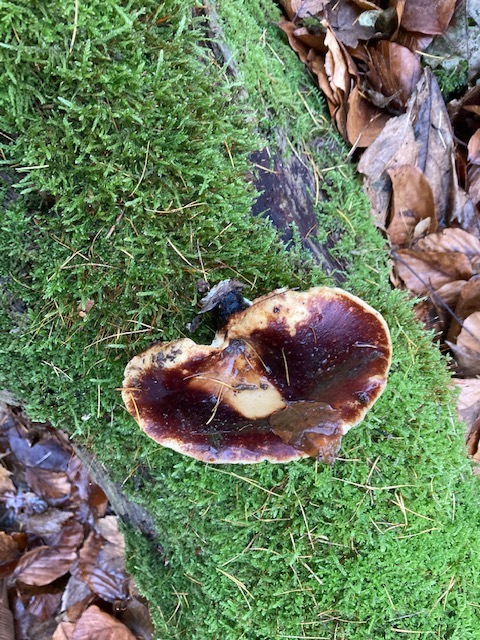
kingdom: Fungi
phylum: Basidiomycota
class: Agaricomycetes
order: Polyporales
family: Polyporaceae
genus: Picipes
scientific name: Picipes badius
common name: kastaniebrun stilkporesvamp
